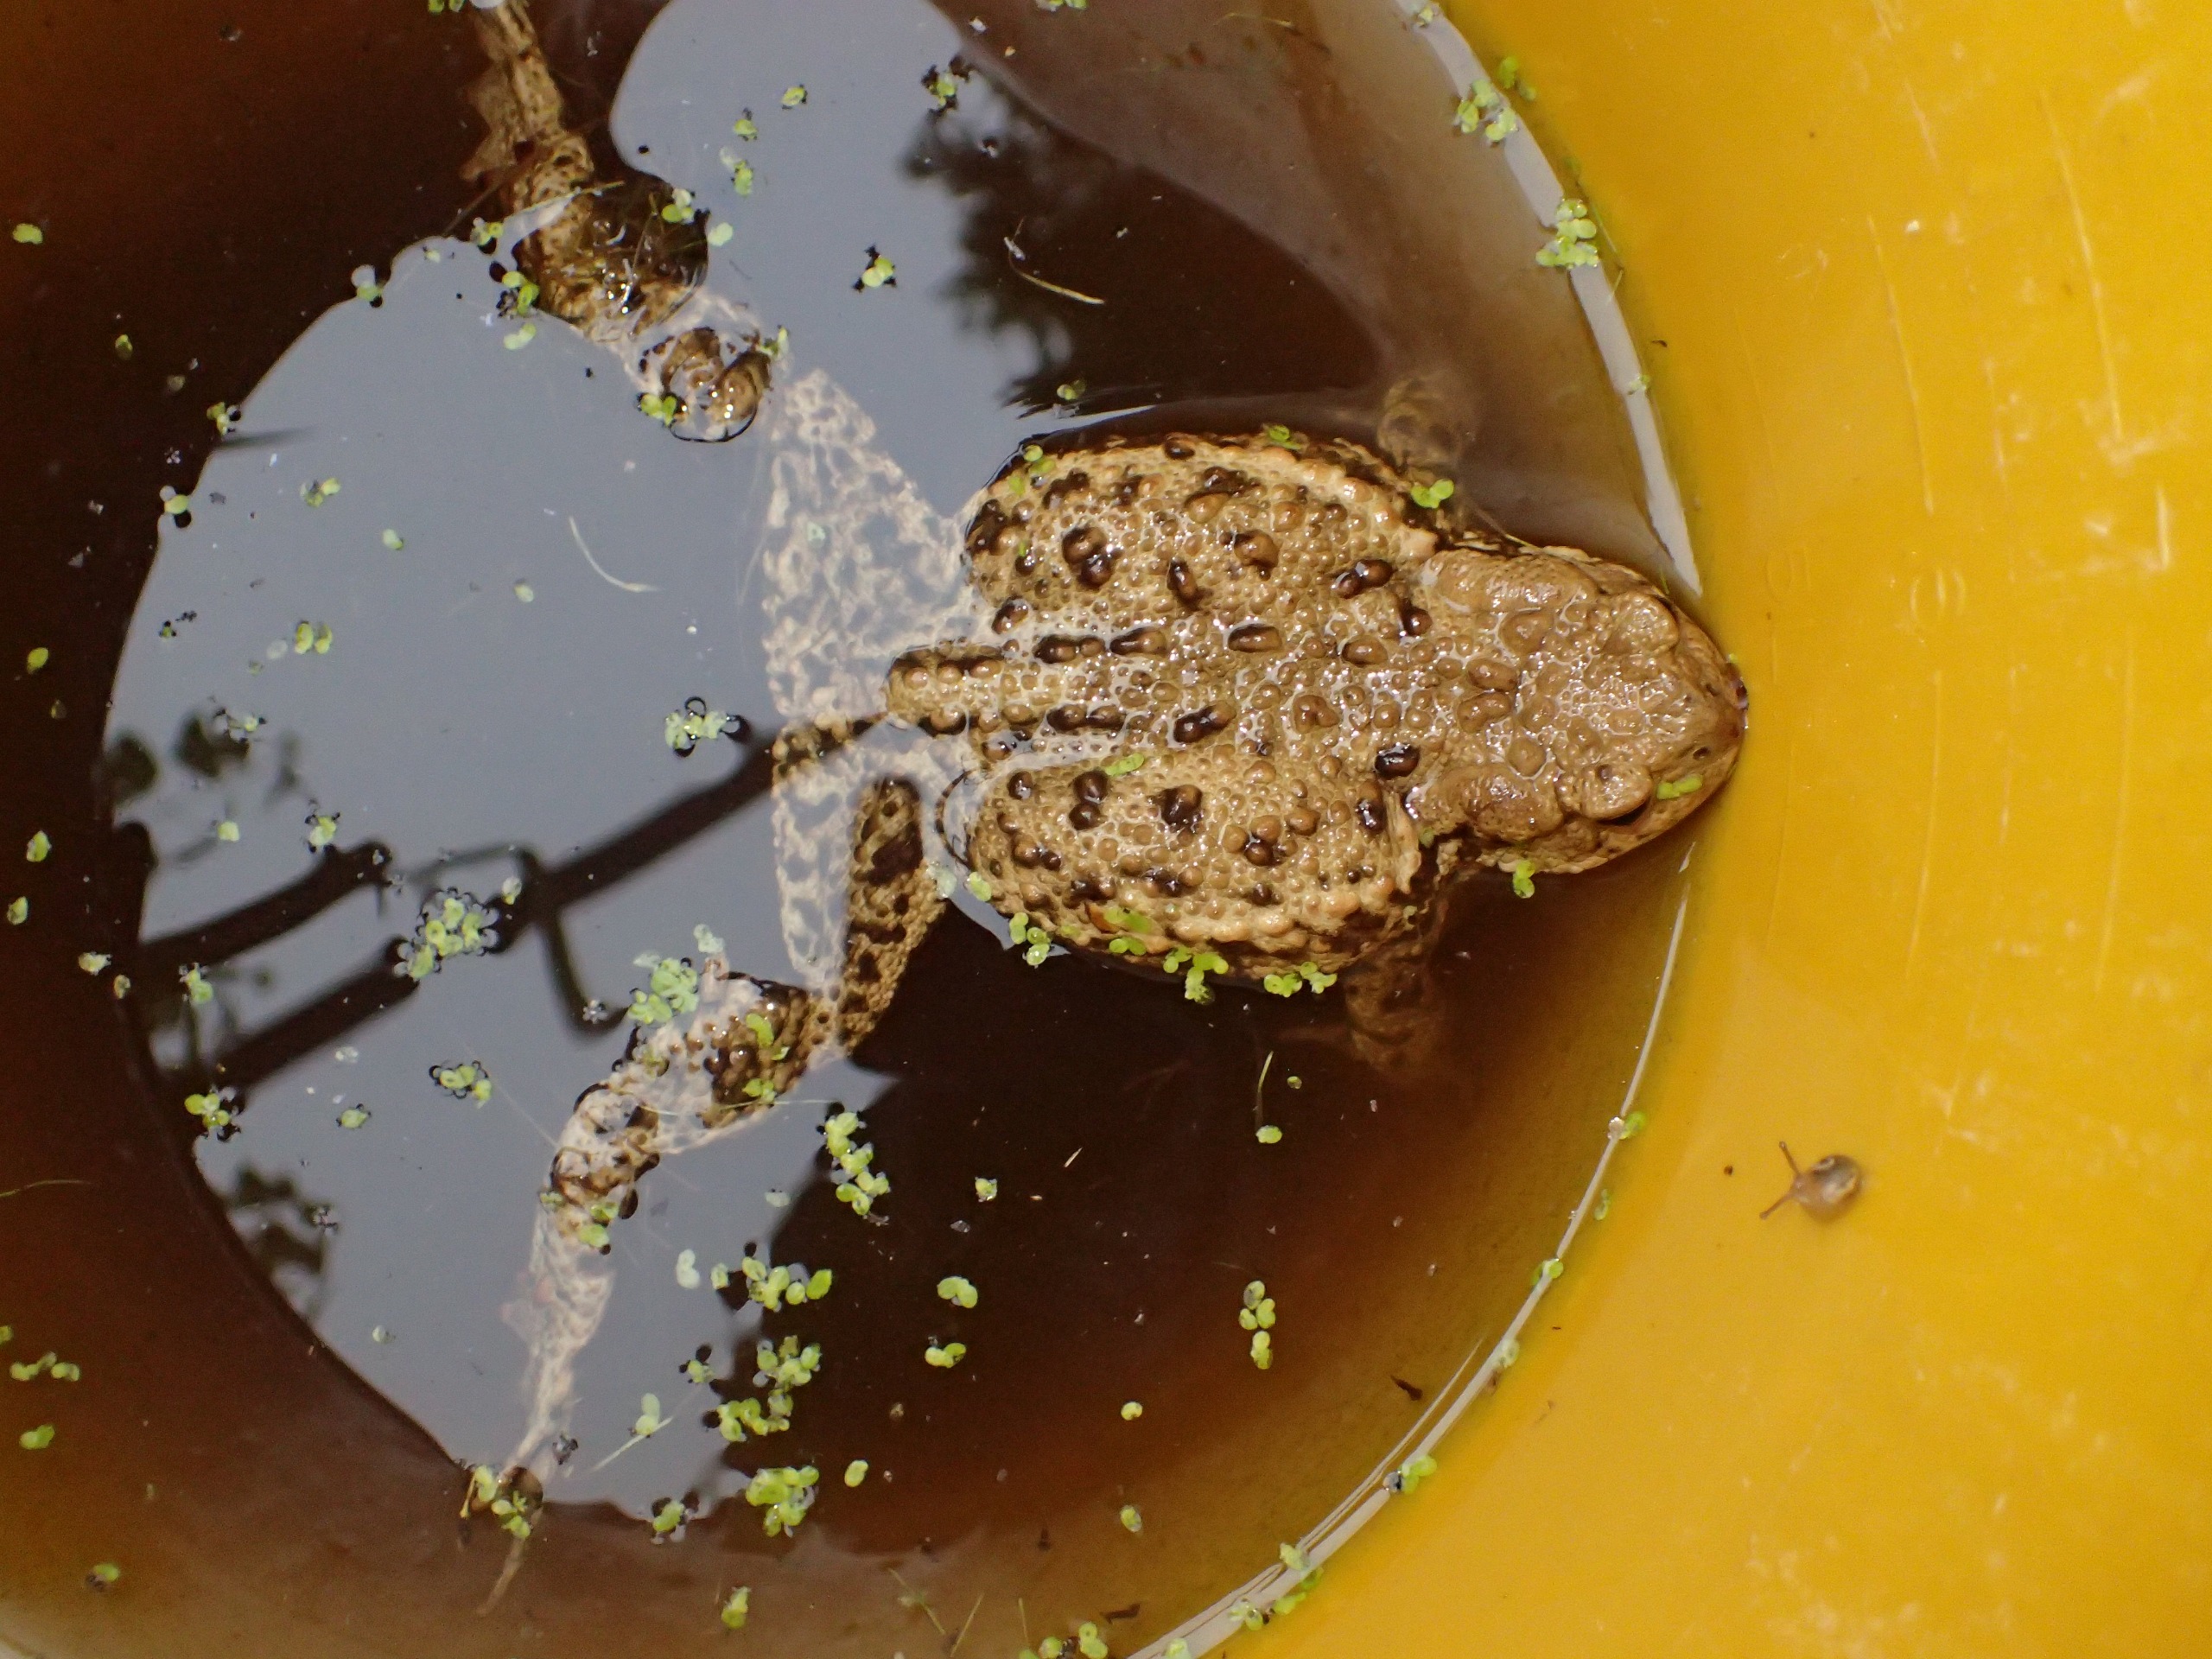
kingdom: Animalia
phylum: Chordata
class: Amphibia
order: Anura
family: Bufonidae
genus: Bufo
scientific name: Bufo bufo
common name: Skrubtudse
